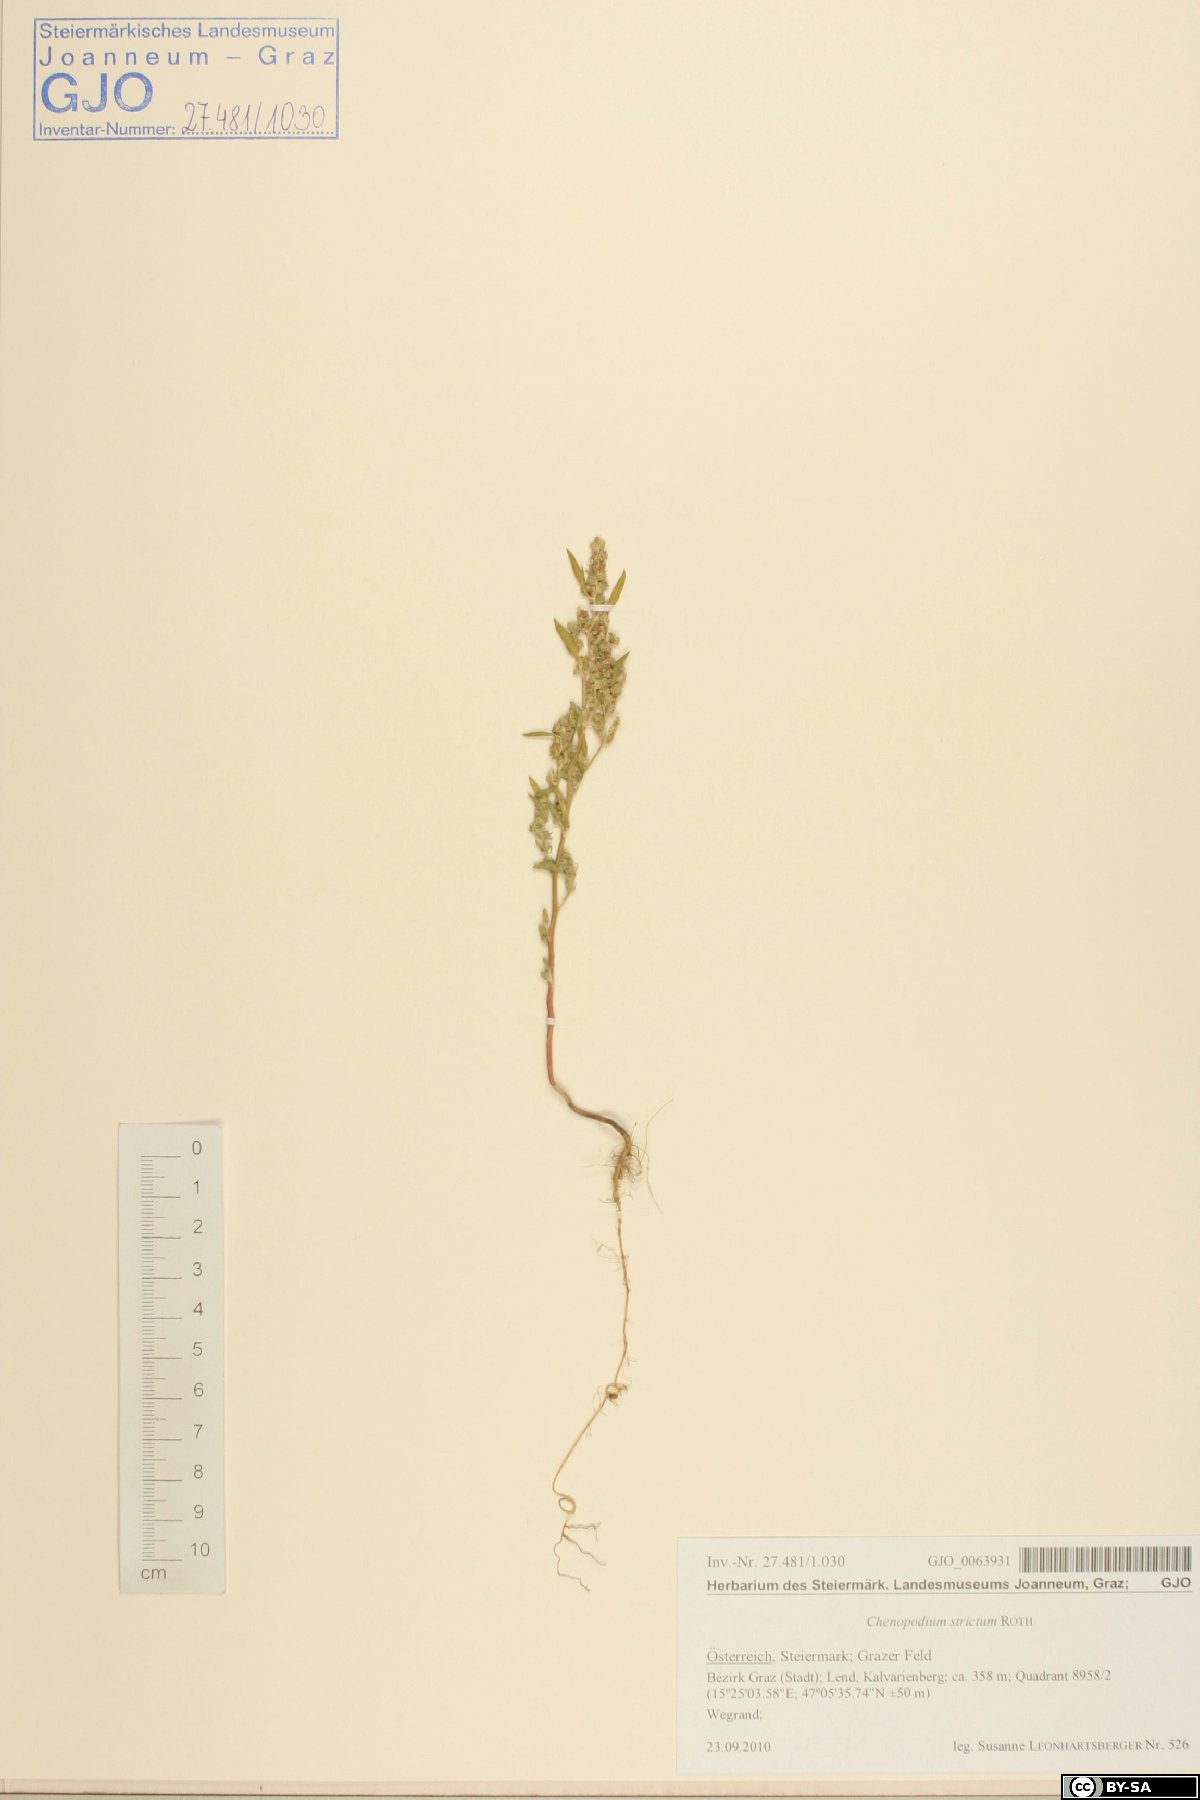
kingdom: Plantae
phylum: Tracheophyta
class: Magnoliopsida
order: Caryophyllales
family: Amaranthaceae
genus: Chenopodium
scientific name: Chenopodium album
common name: Fat-hen
